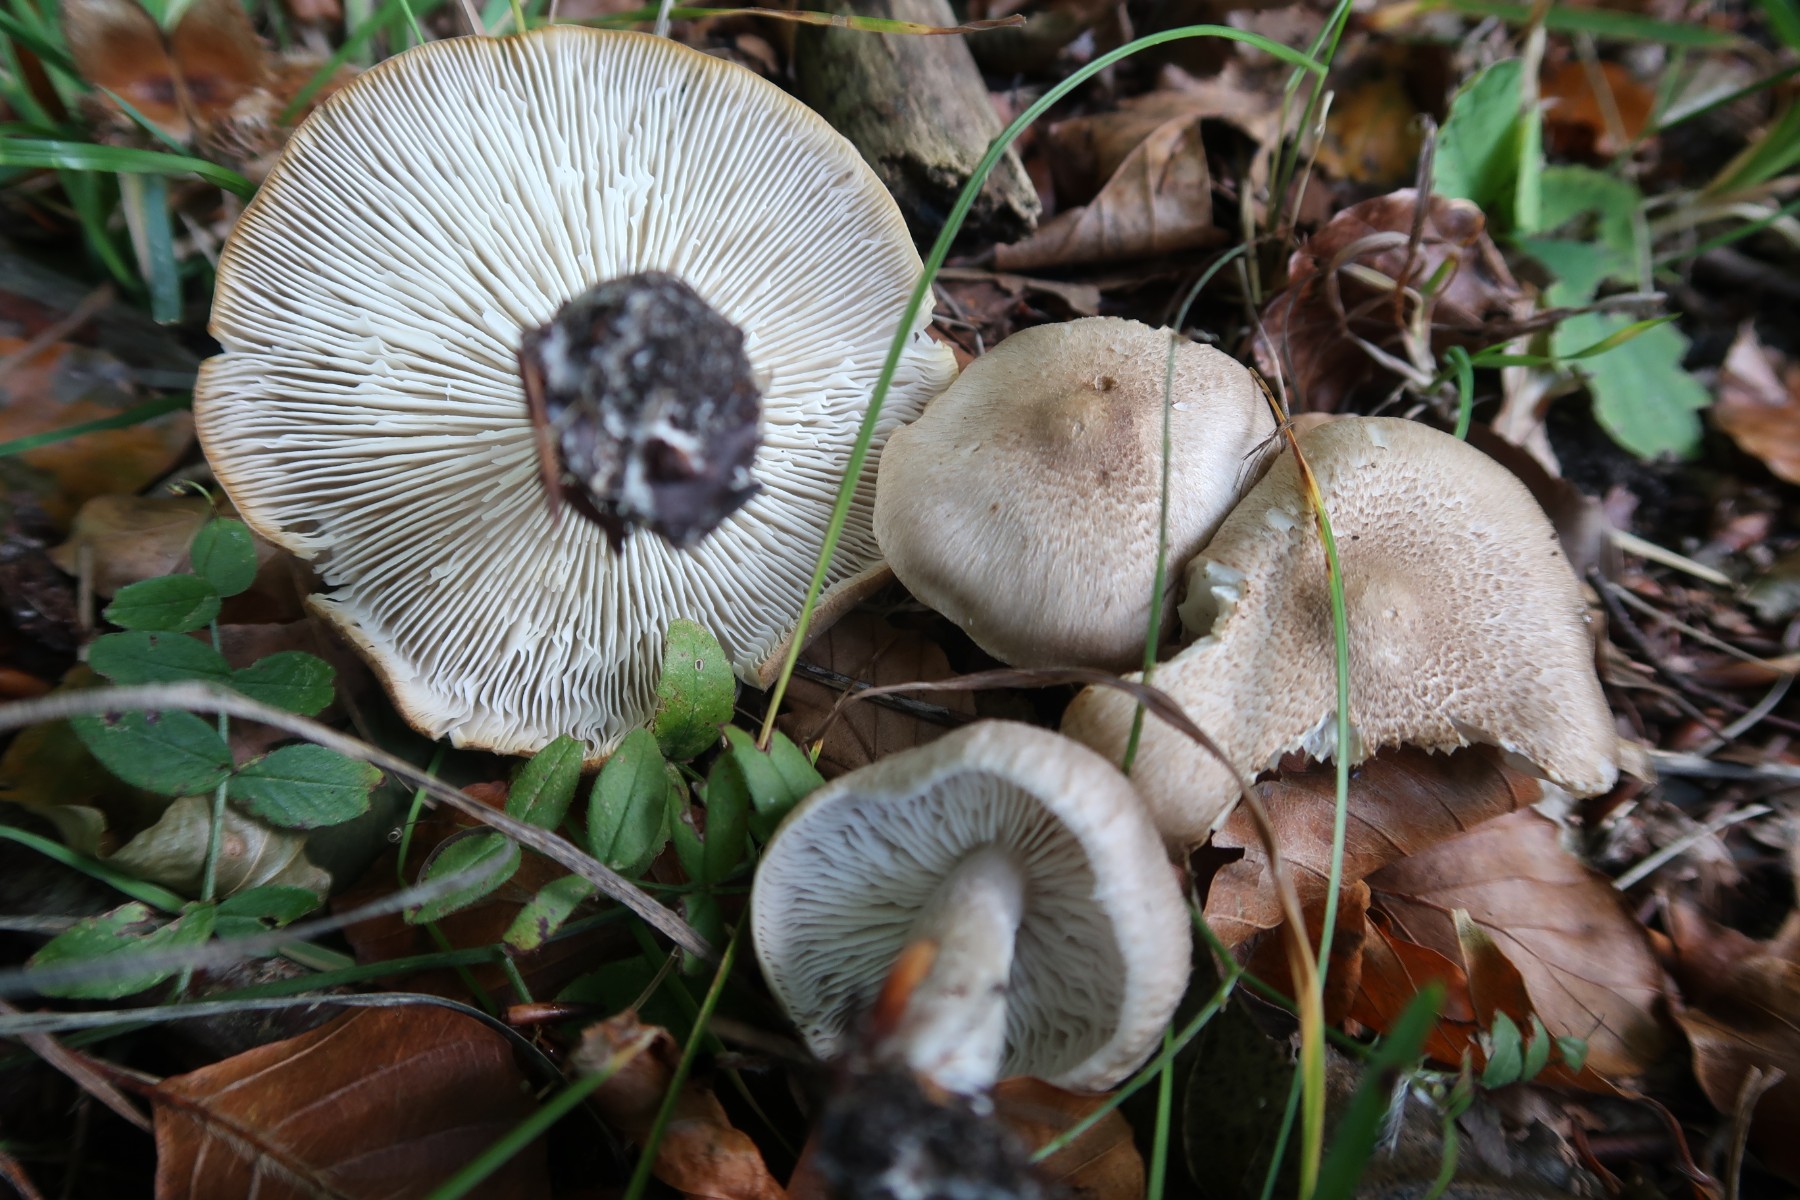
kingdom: Fungi
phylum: Basidiomycota
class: Agaricomycetes
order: Agaricales
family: Tricholomataceae
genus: Tricholoma
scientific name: Tricholoma scalpturatum
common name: gulplettet ridderhat
